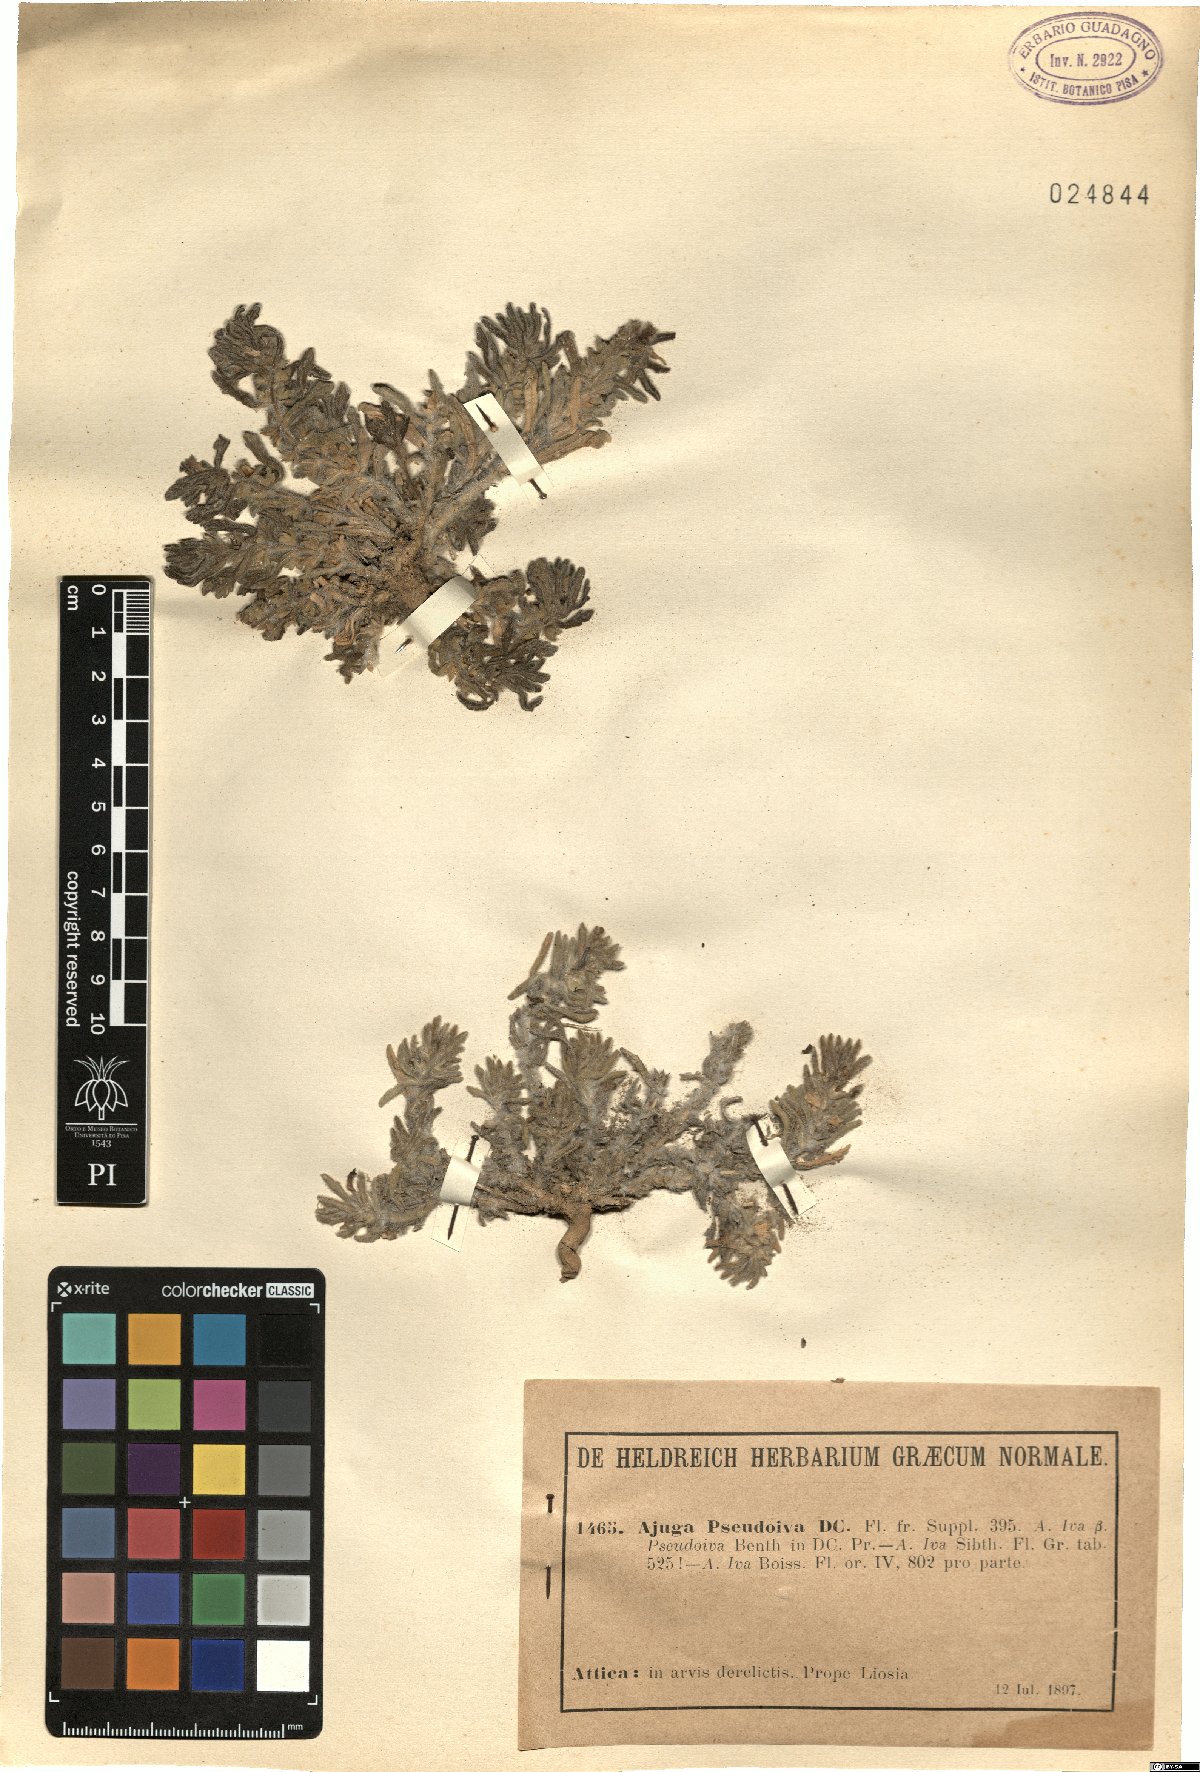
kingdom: Plantae
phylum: Tracheophyta
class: Magnoliopsida
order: Lamiales
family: Lamiaceae
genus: Ajuga
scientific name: Ajuga iva
